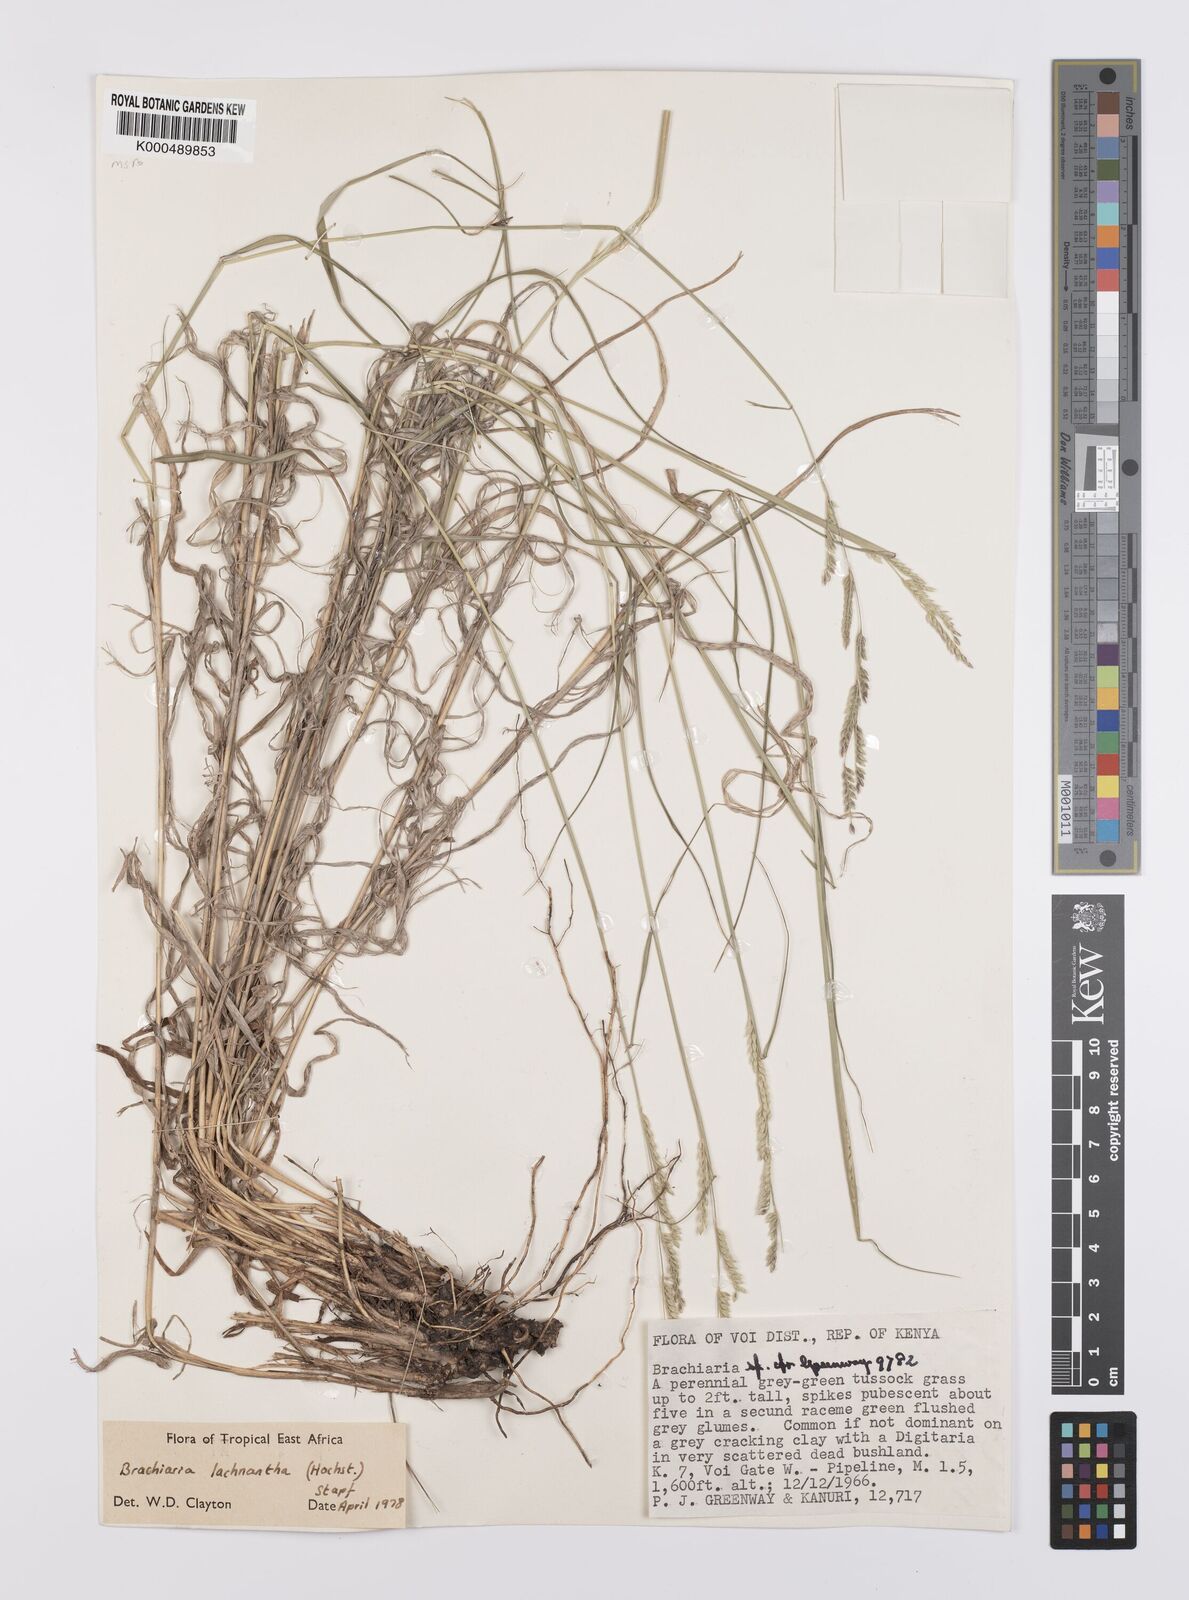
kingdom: Plantae
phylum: Tracheophyta
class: Liliopsida
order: Poales
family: Poaceae
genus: Urochloa
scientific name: Urochloa lachnantha
